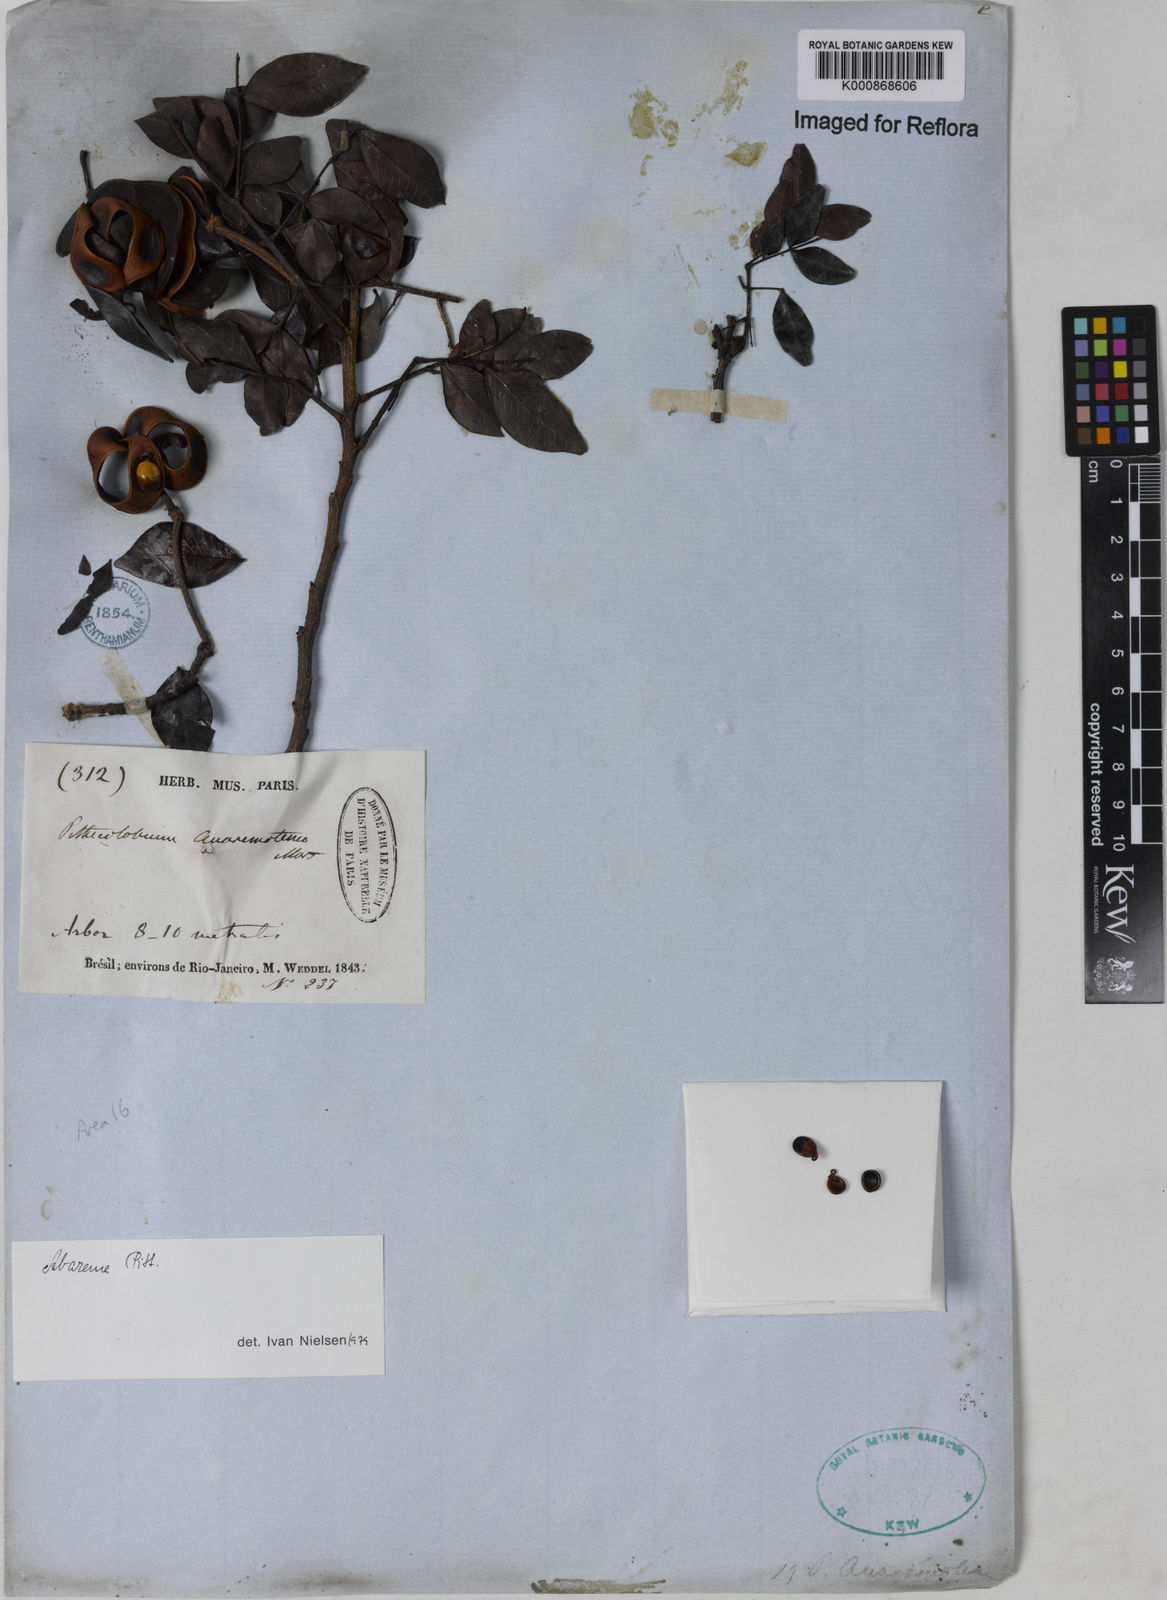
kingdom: Plantae
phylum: Tracheophyta
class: Magnoliopsida
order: Fabales
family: Fabaceae
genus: Abarema
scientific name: Abarema
